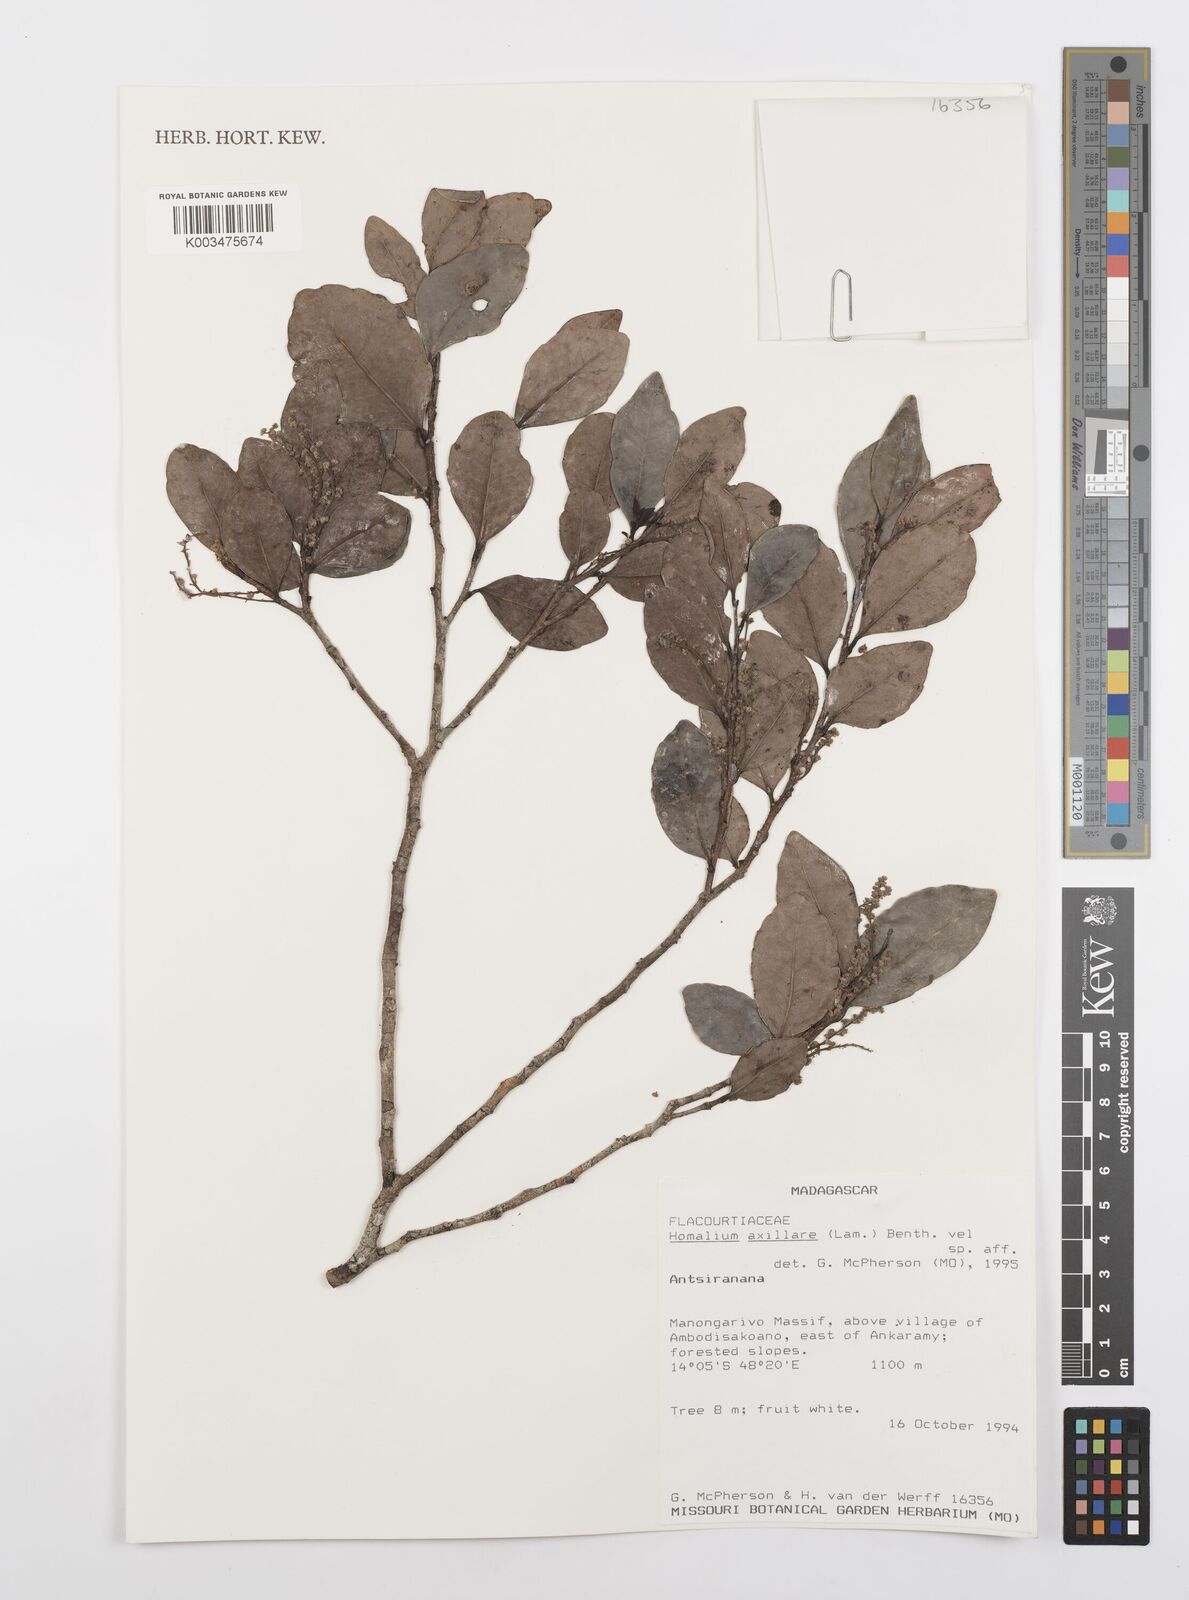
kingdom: Plantae
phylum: Tracheophyta
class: Magnoliopsida
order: Malpighiales
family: Salicaceae
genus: Homalium
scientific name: Homalium axillare
